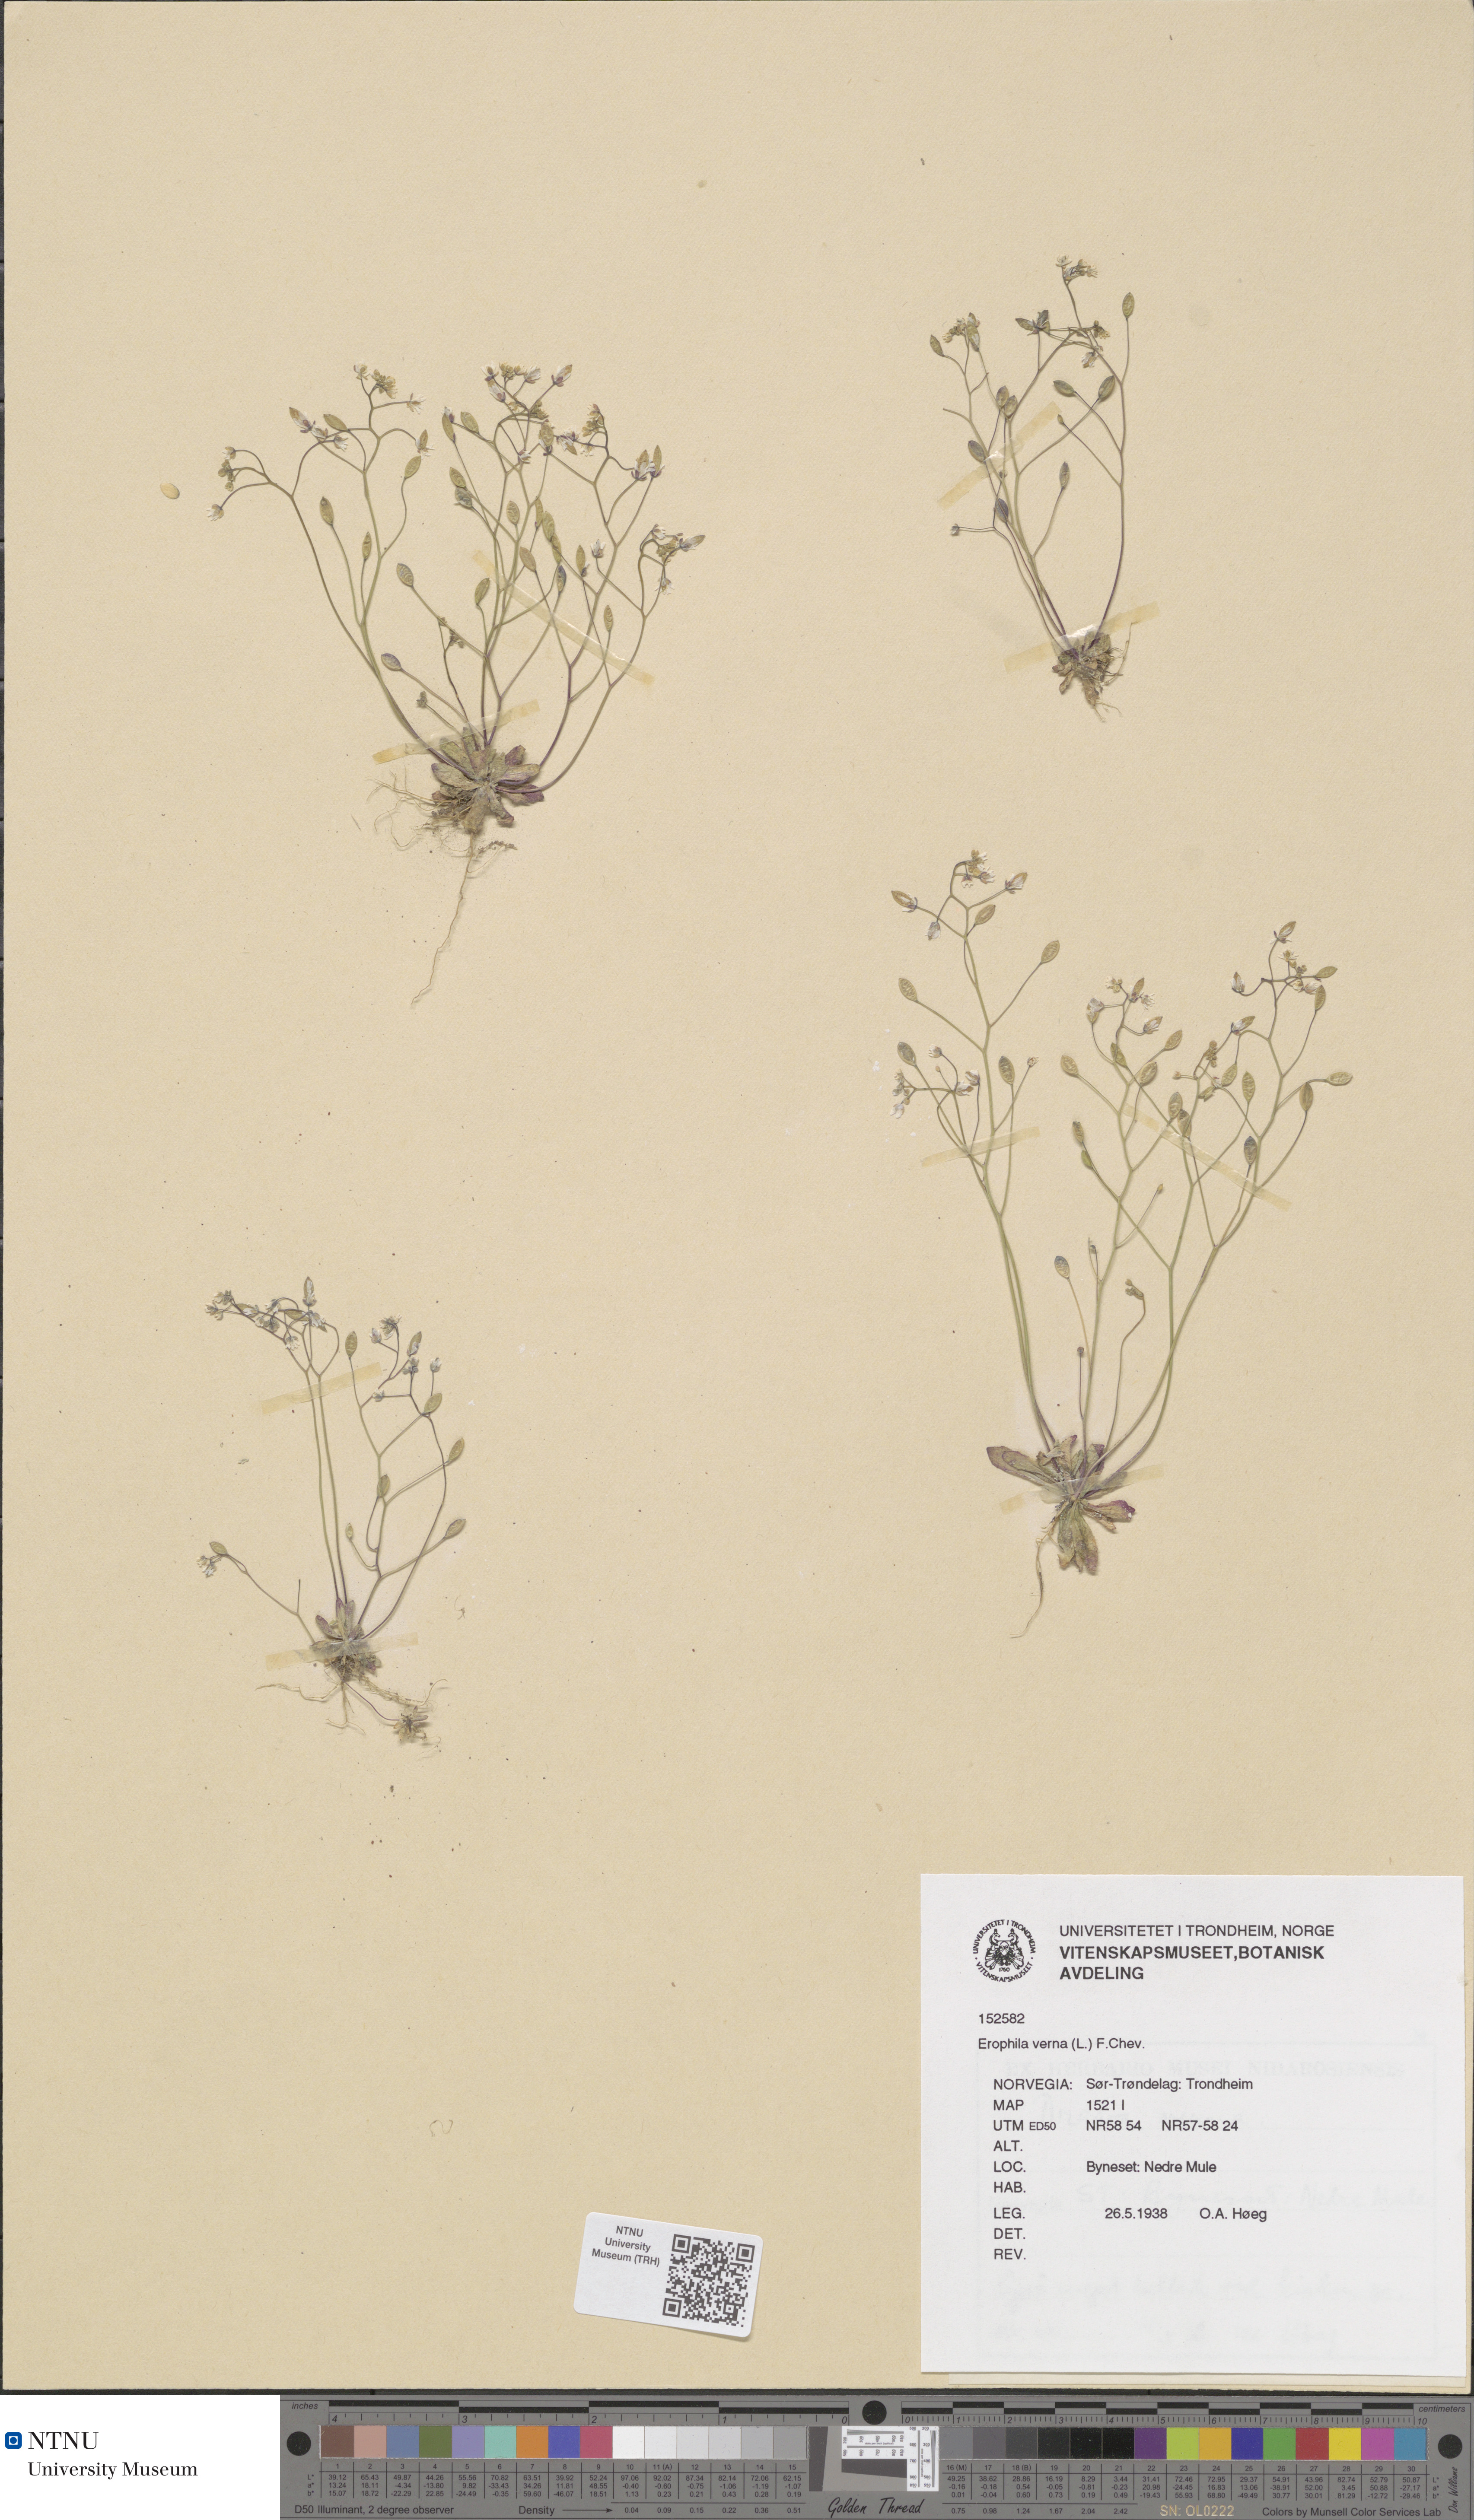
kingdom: Plantae
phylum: Tracheophyta
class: Magnoliopsida
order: Brassicales
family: Brassicaceae
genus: Draba
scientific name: Draba verna
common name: Spring draba
